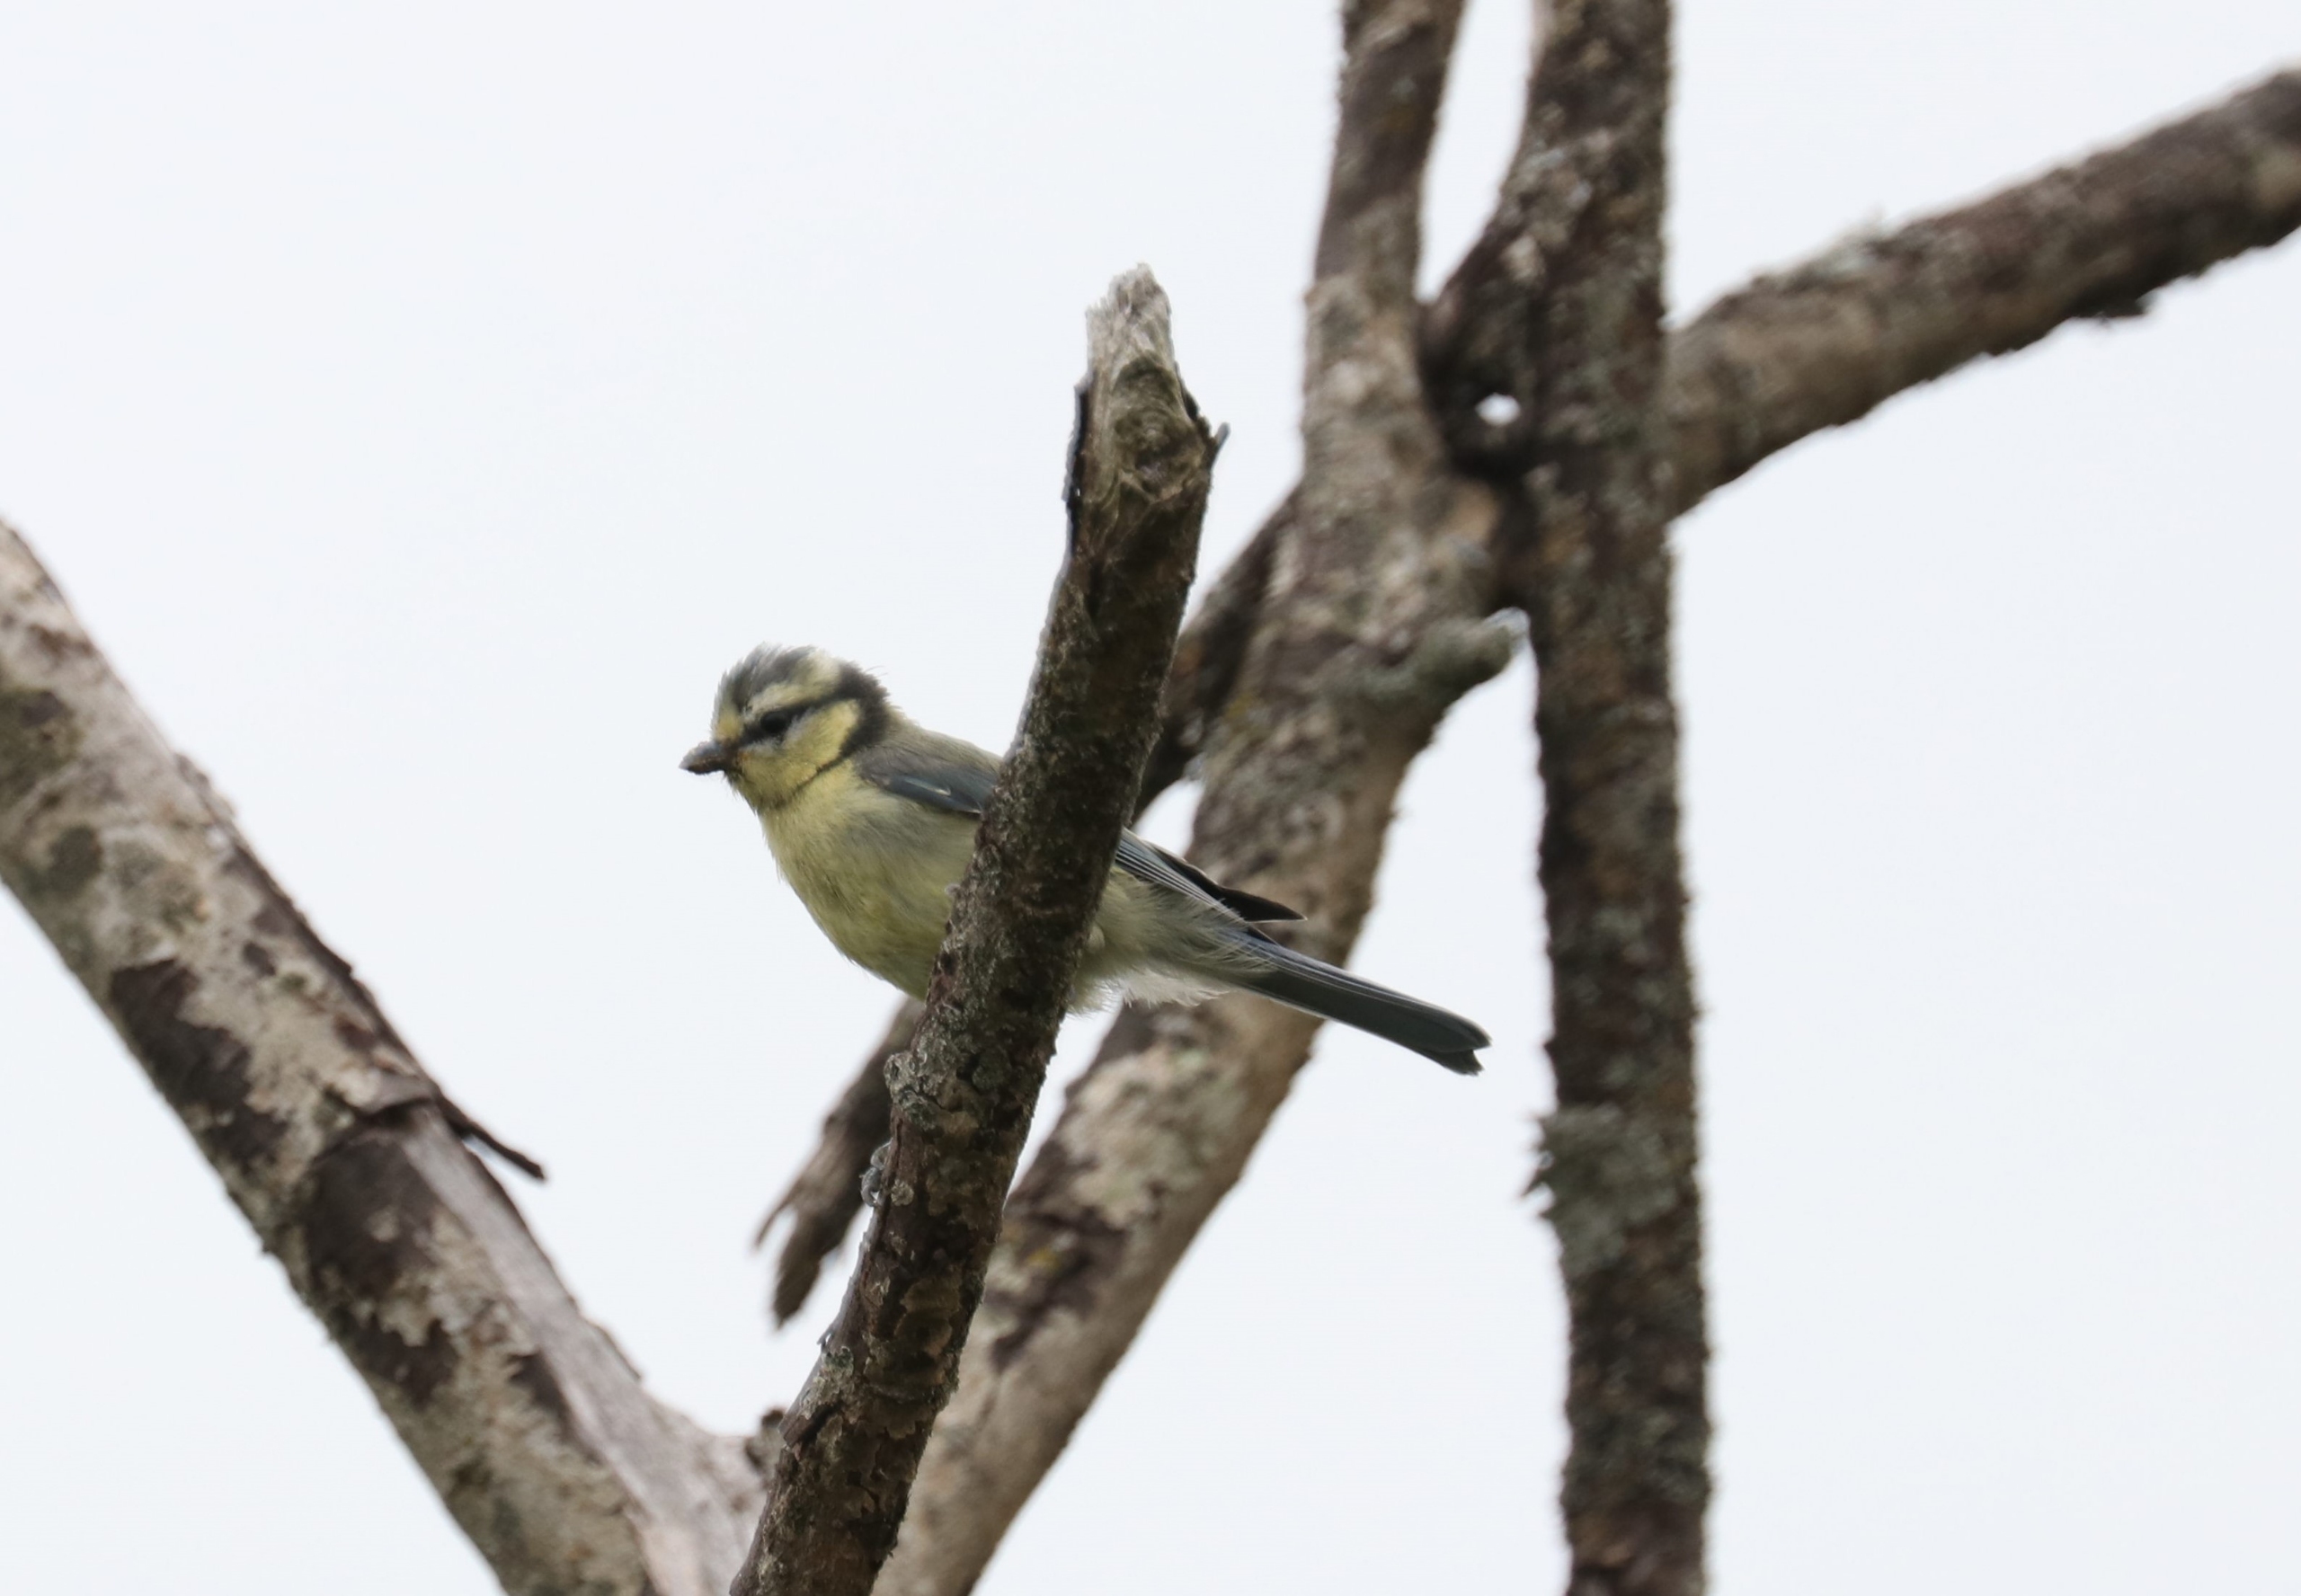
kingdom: Animalia
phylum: Chordata
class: Aves
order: Passeriformes
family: Paridae
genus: Cyanistes
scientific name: Cyanistes caeruleus
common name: Blåmejse
